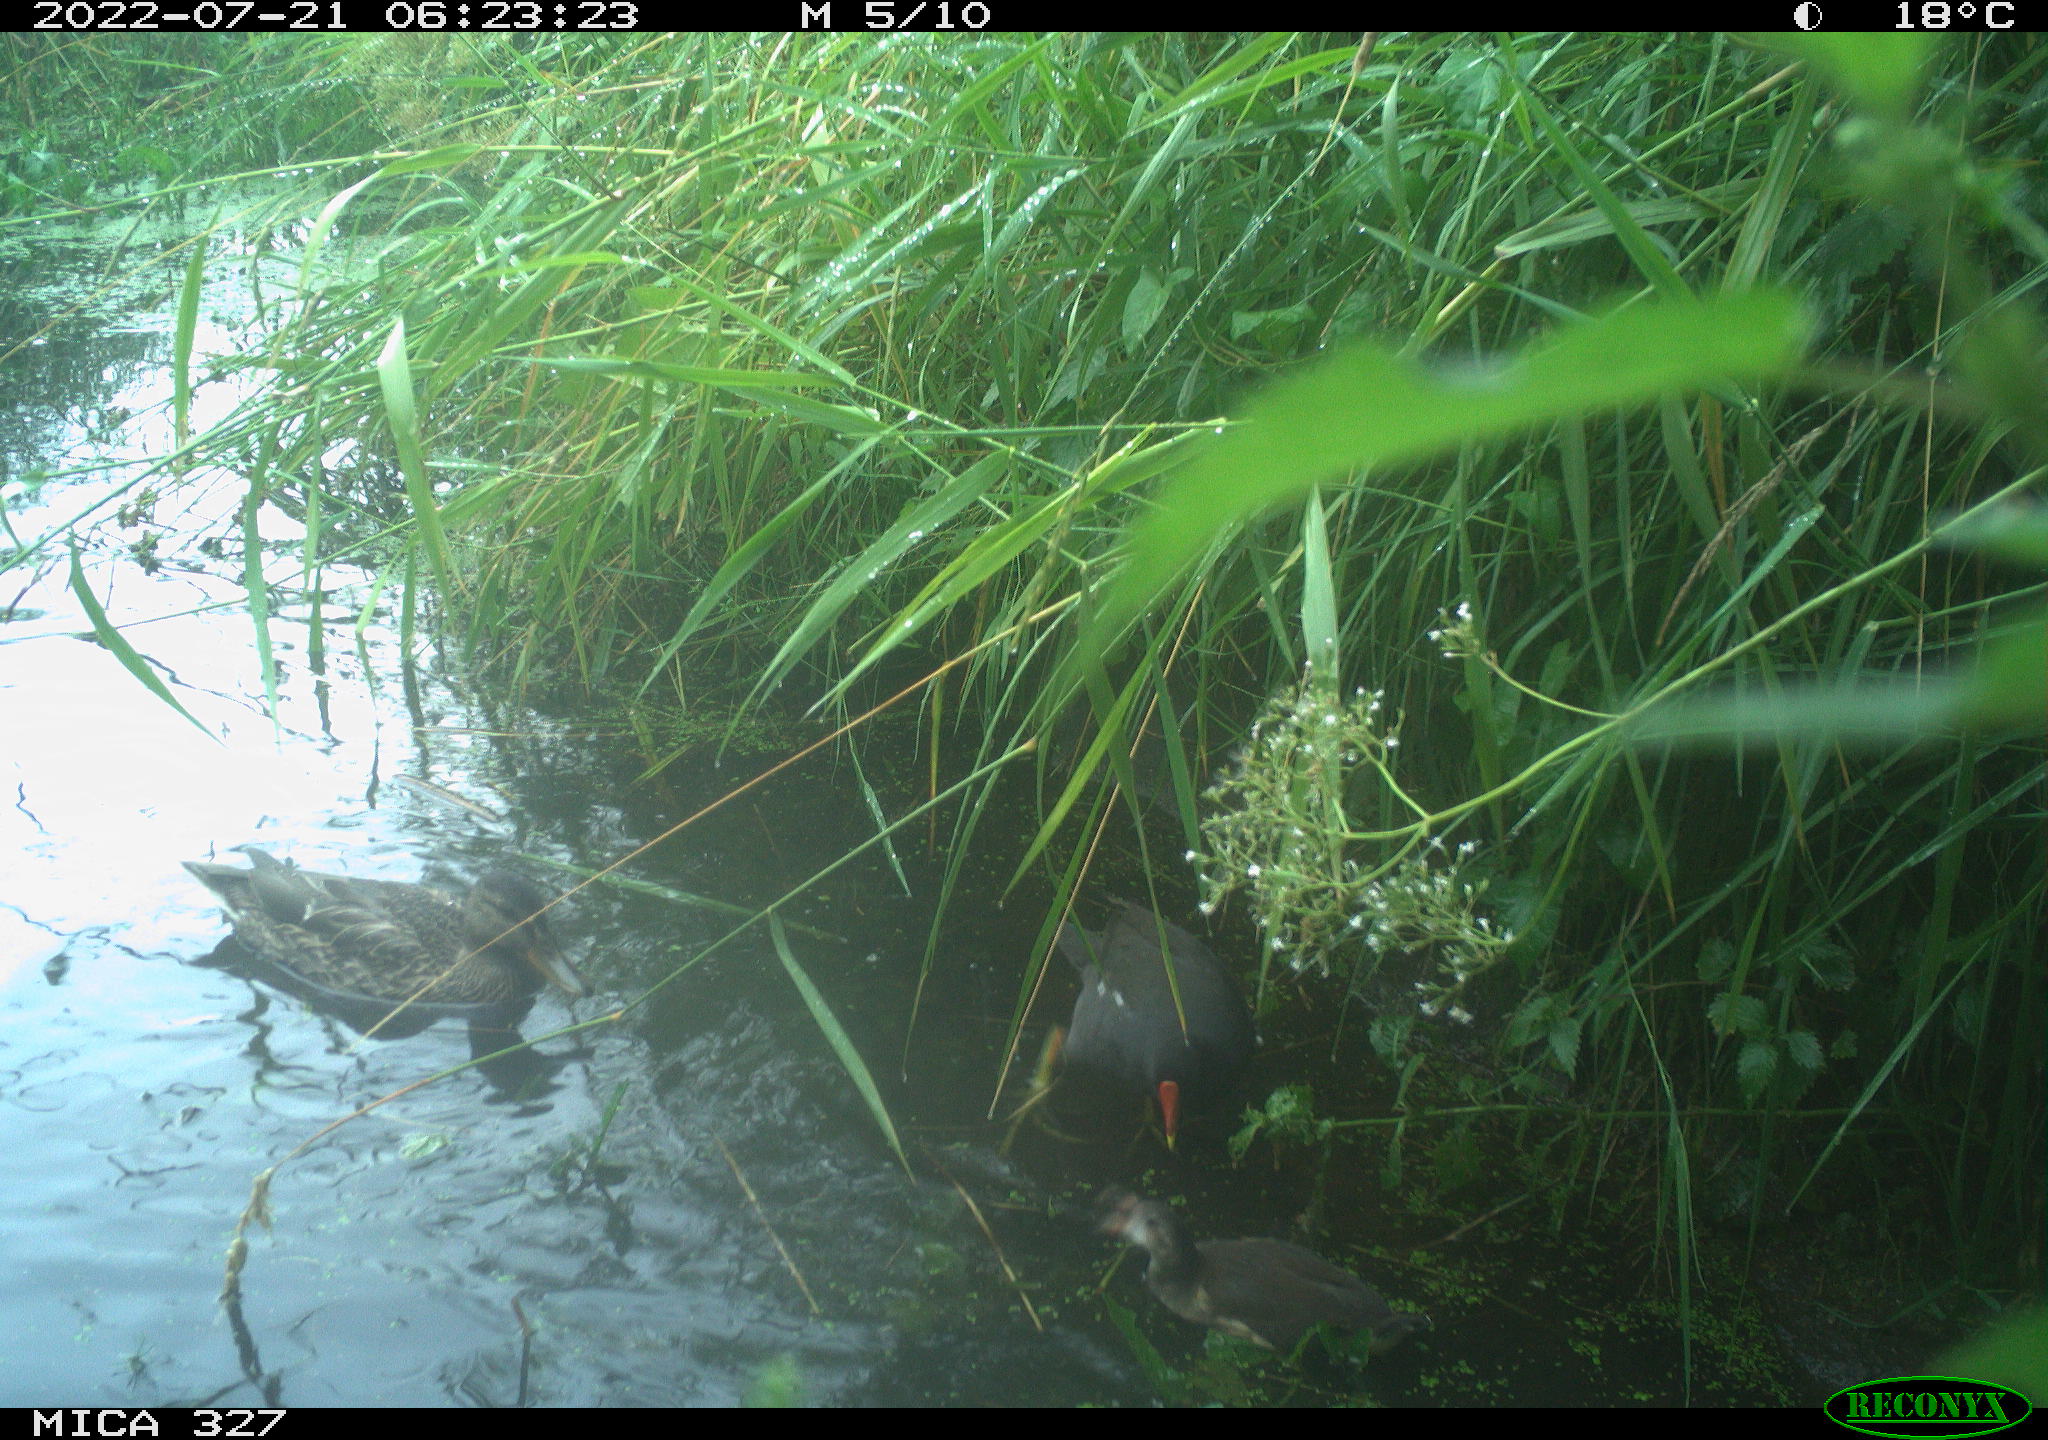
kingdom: Animalia
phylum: Chordata
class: Aves
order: Anseriformes
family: Anatidae
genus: Anas
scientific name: Anas
